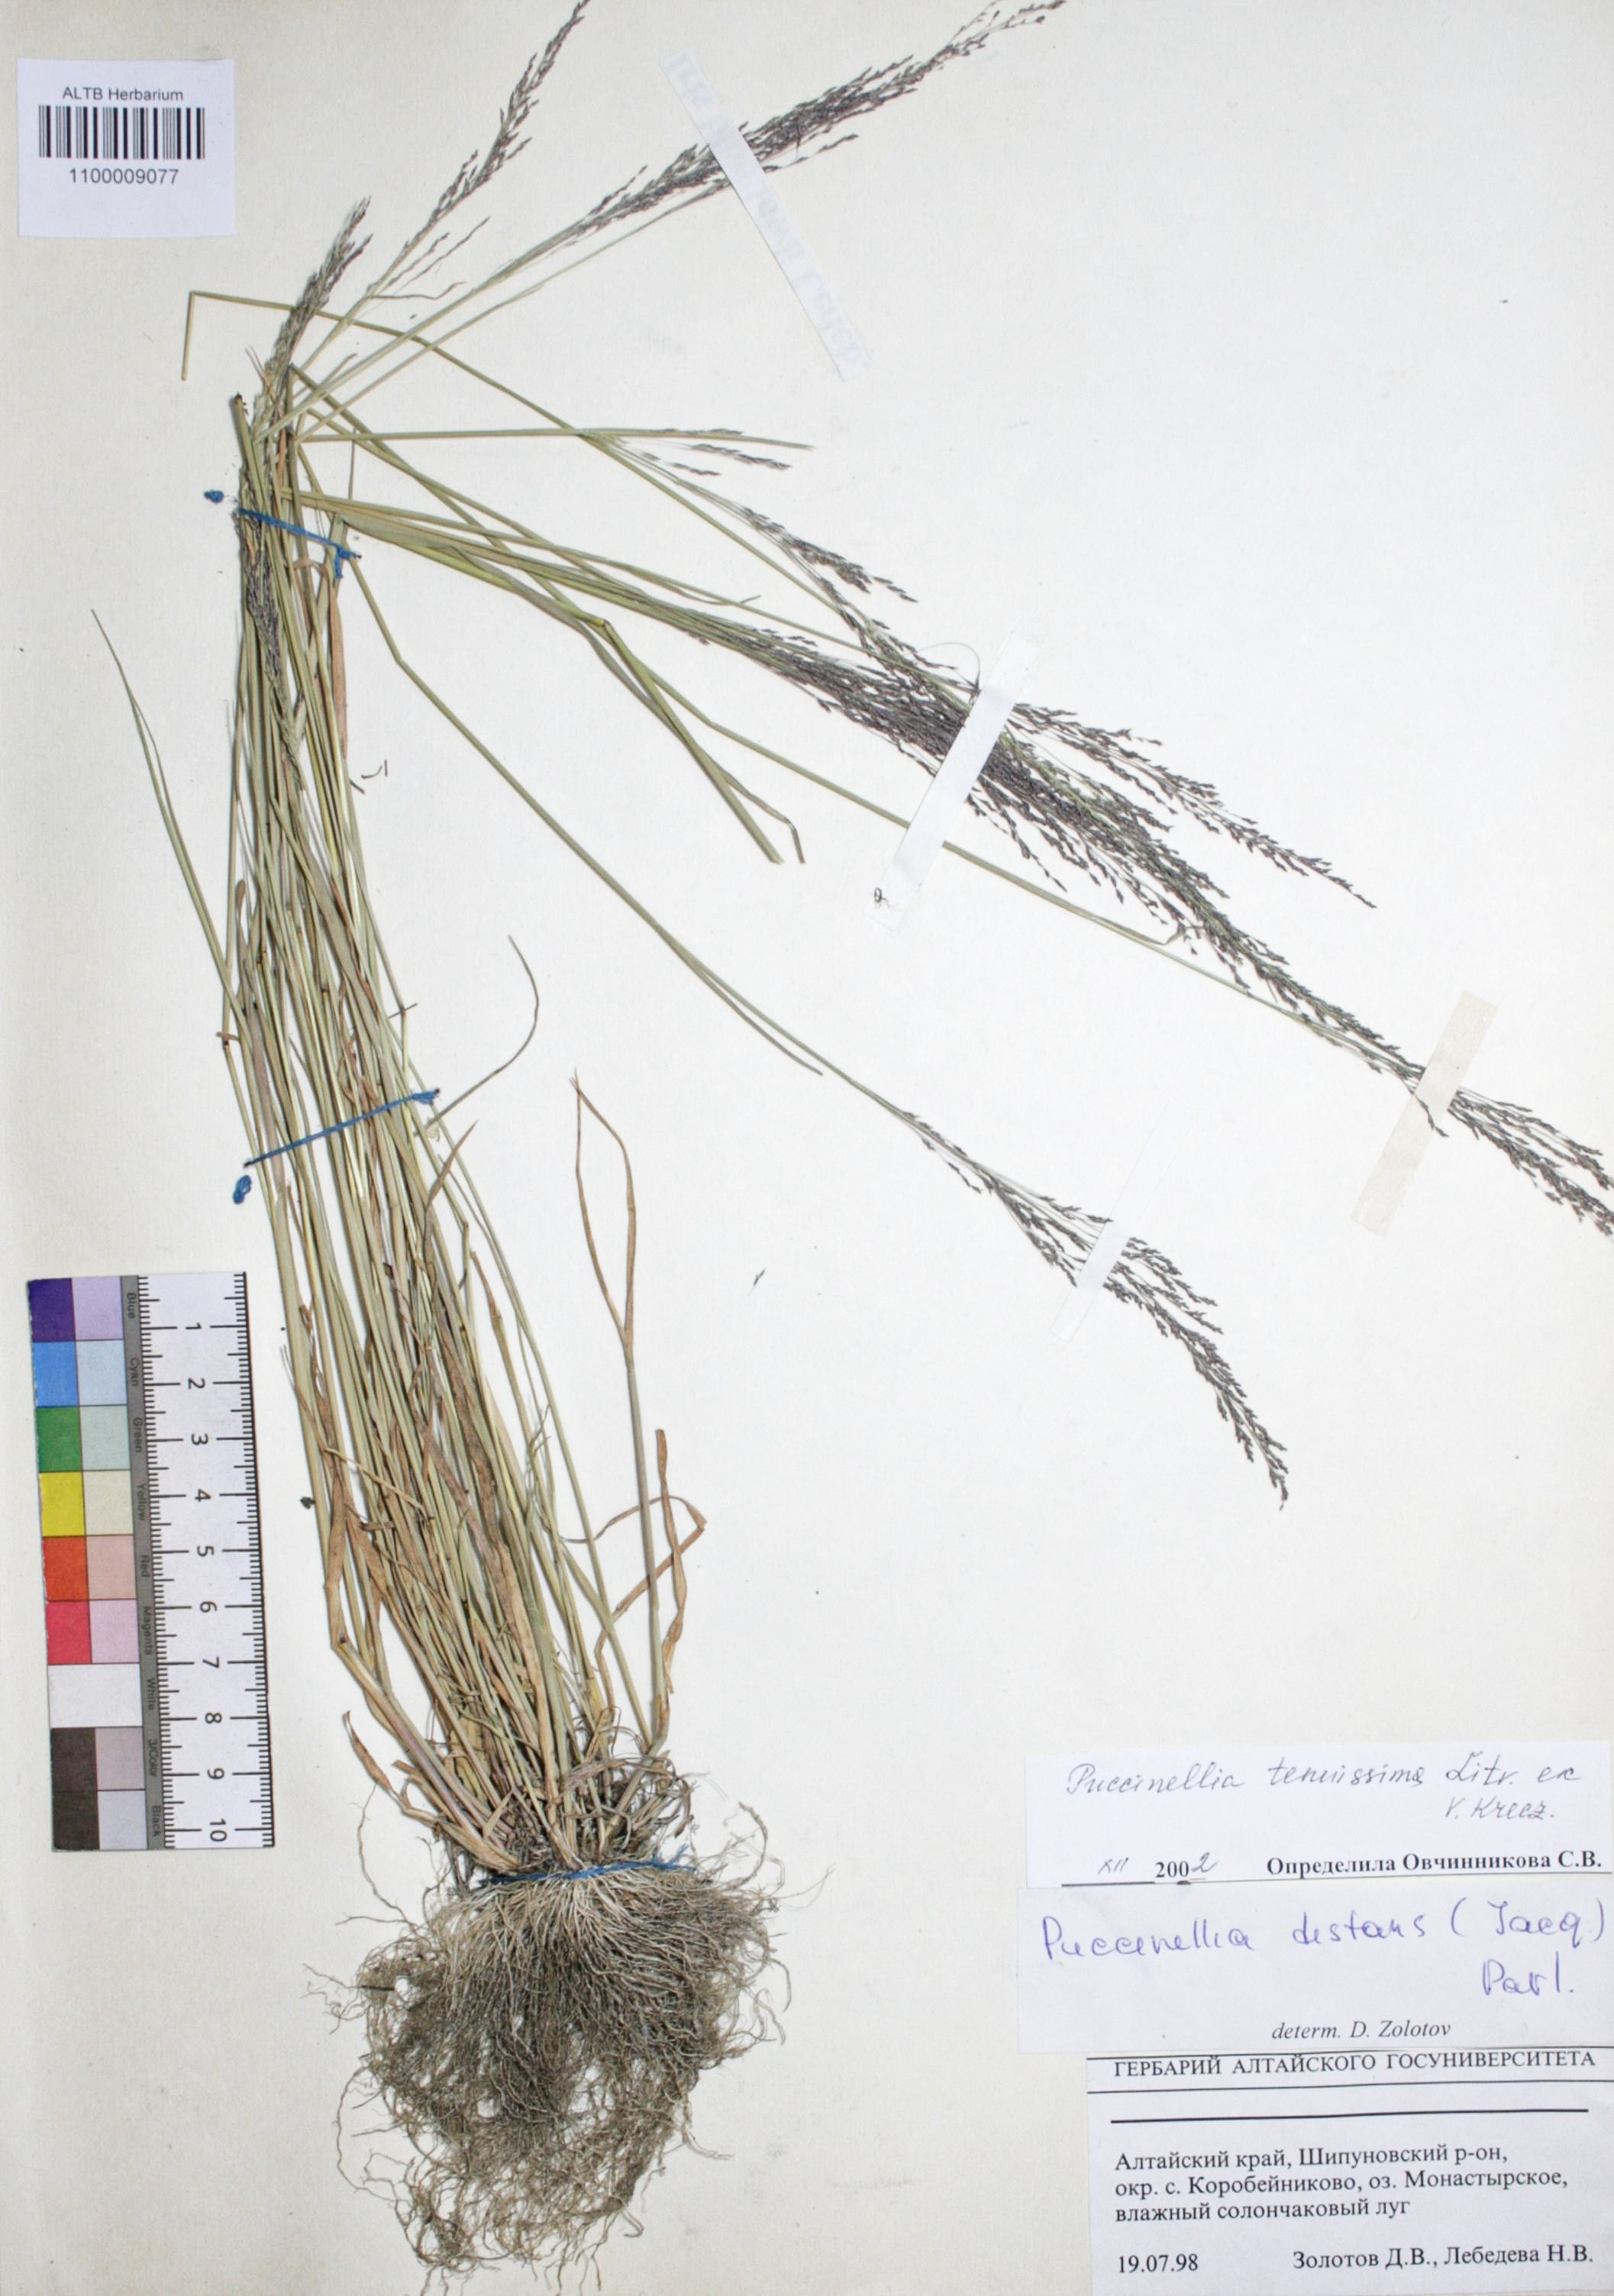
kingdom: Plantae
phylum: Tracheophyta
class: Liliopsida
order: Poales
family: Poaceae
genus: Puccinellia
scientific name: Puccinellia distans
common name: Weeping alkaligrass
